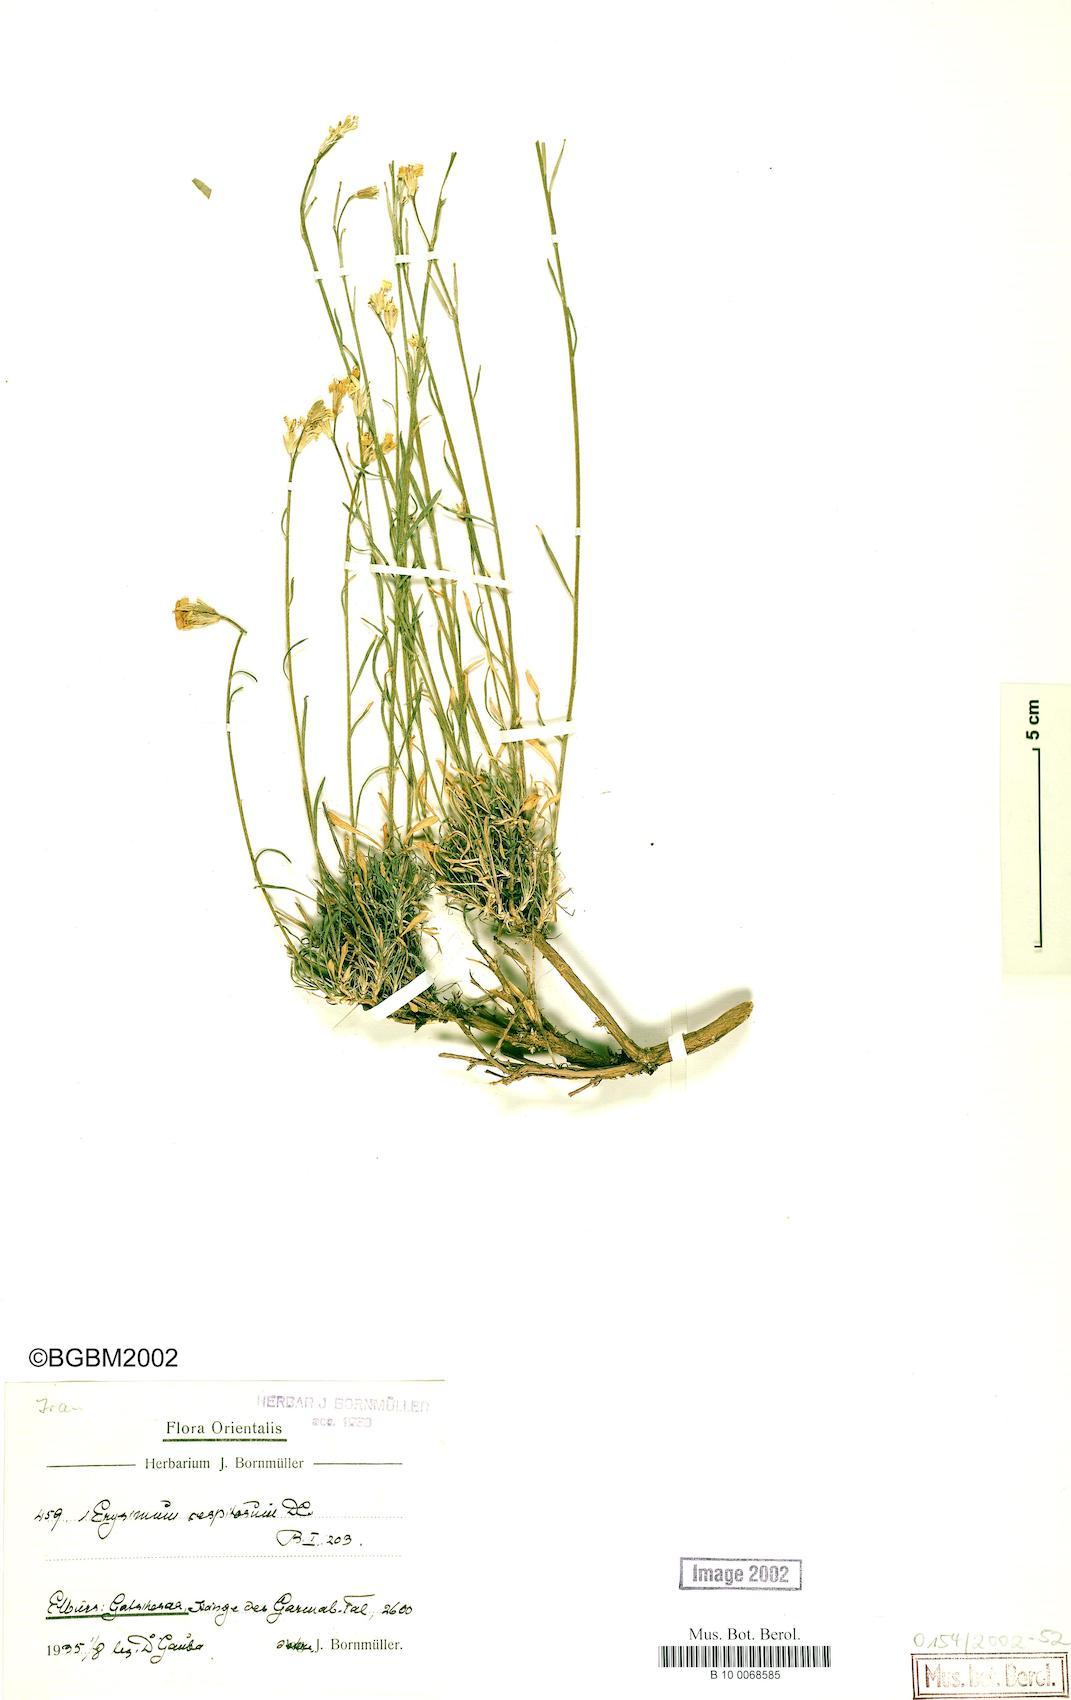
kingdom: Plantae
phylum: Tracheophyta
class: Magnoliopsida
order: Brassicales
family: Brassicaceae
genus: Erysimum
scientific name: Erysimum caespitosum
